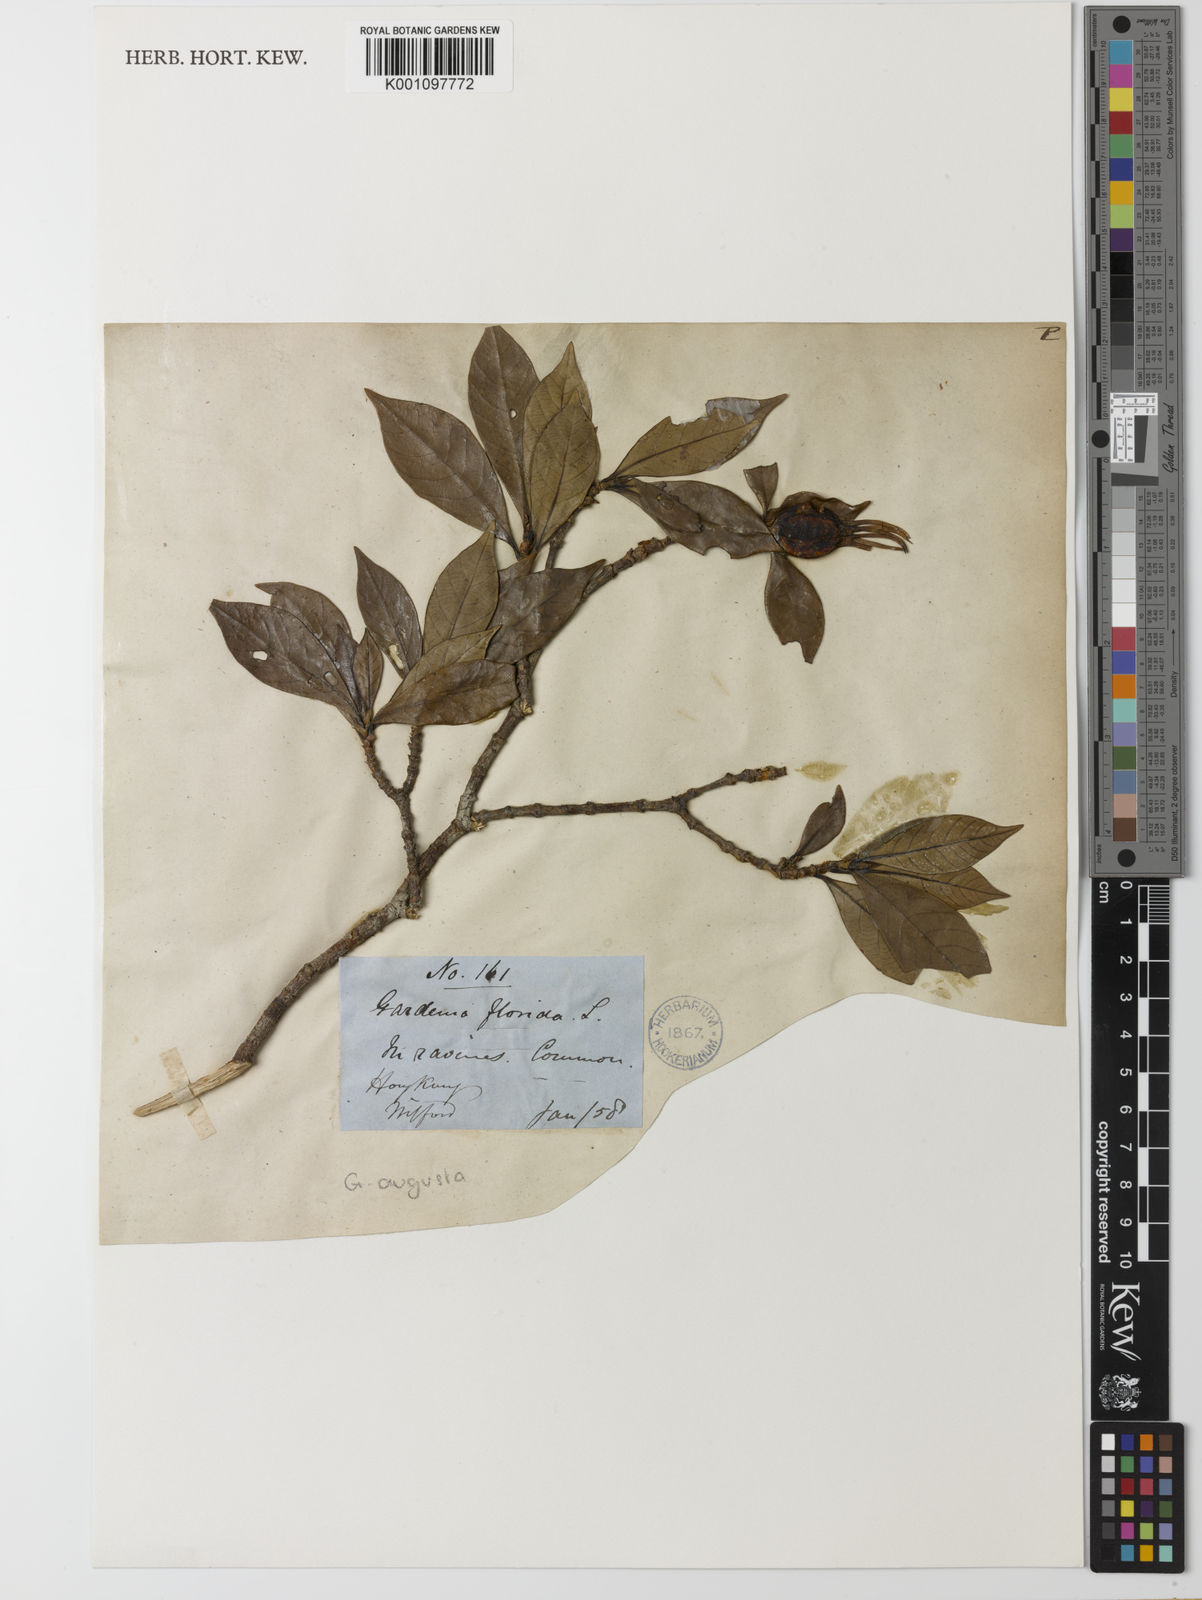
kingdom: Plantae
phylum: Tracheophyta
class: Magnoliopsida
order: Gentianales
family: Rubiaceae
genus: Gardenia
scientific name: Gardenia jasminoides
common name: Cape-jasmine
